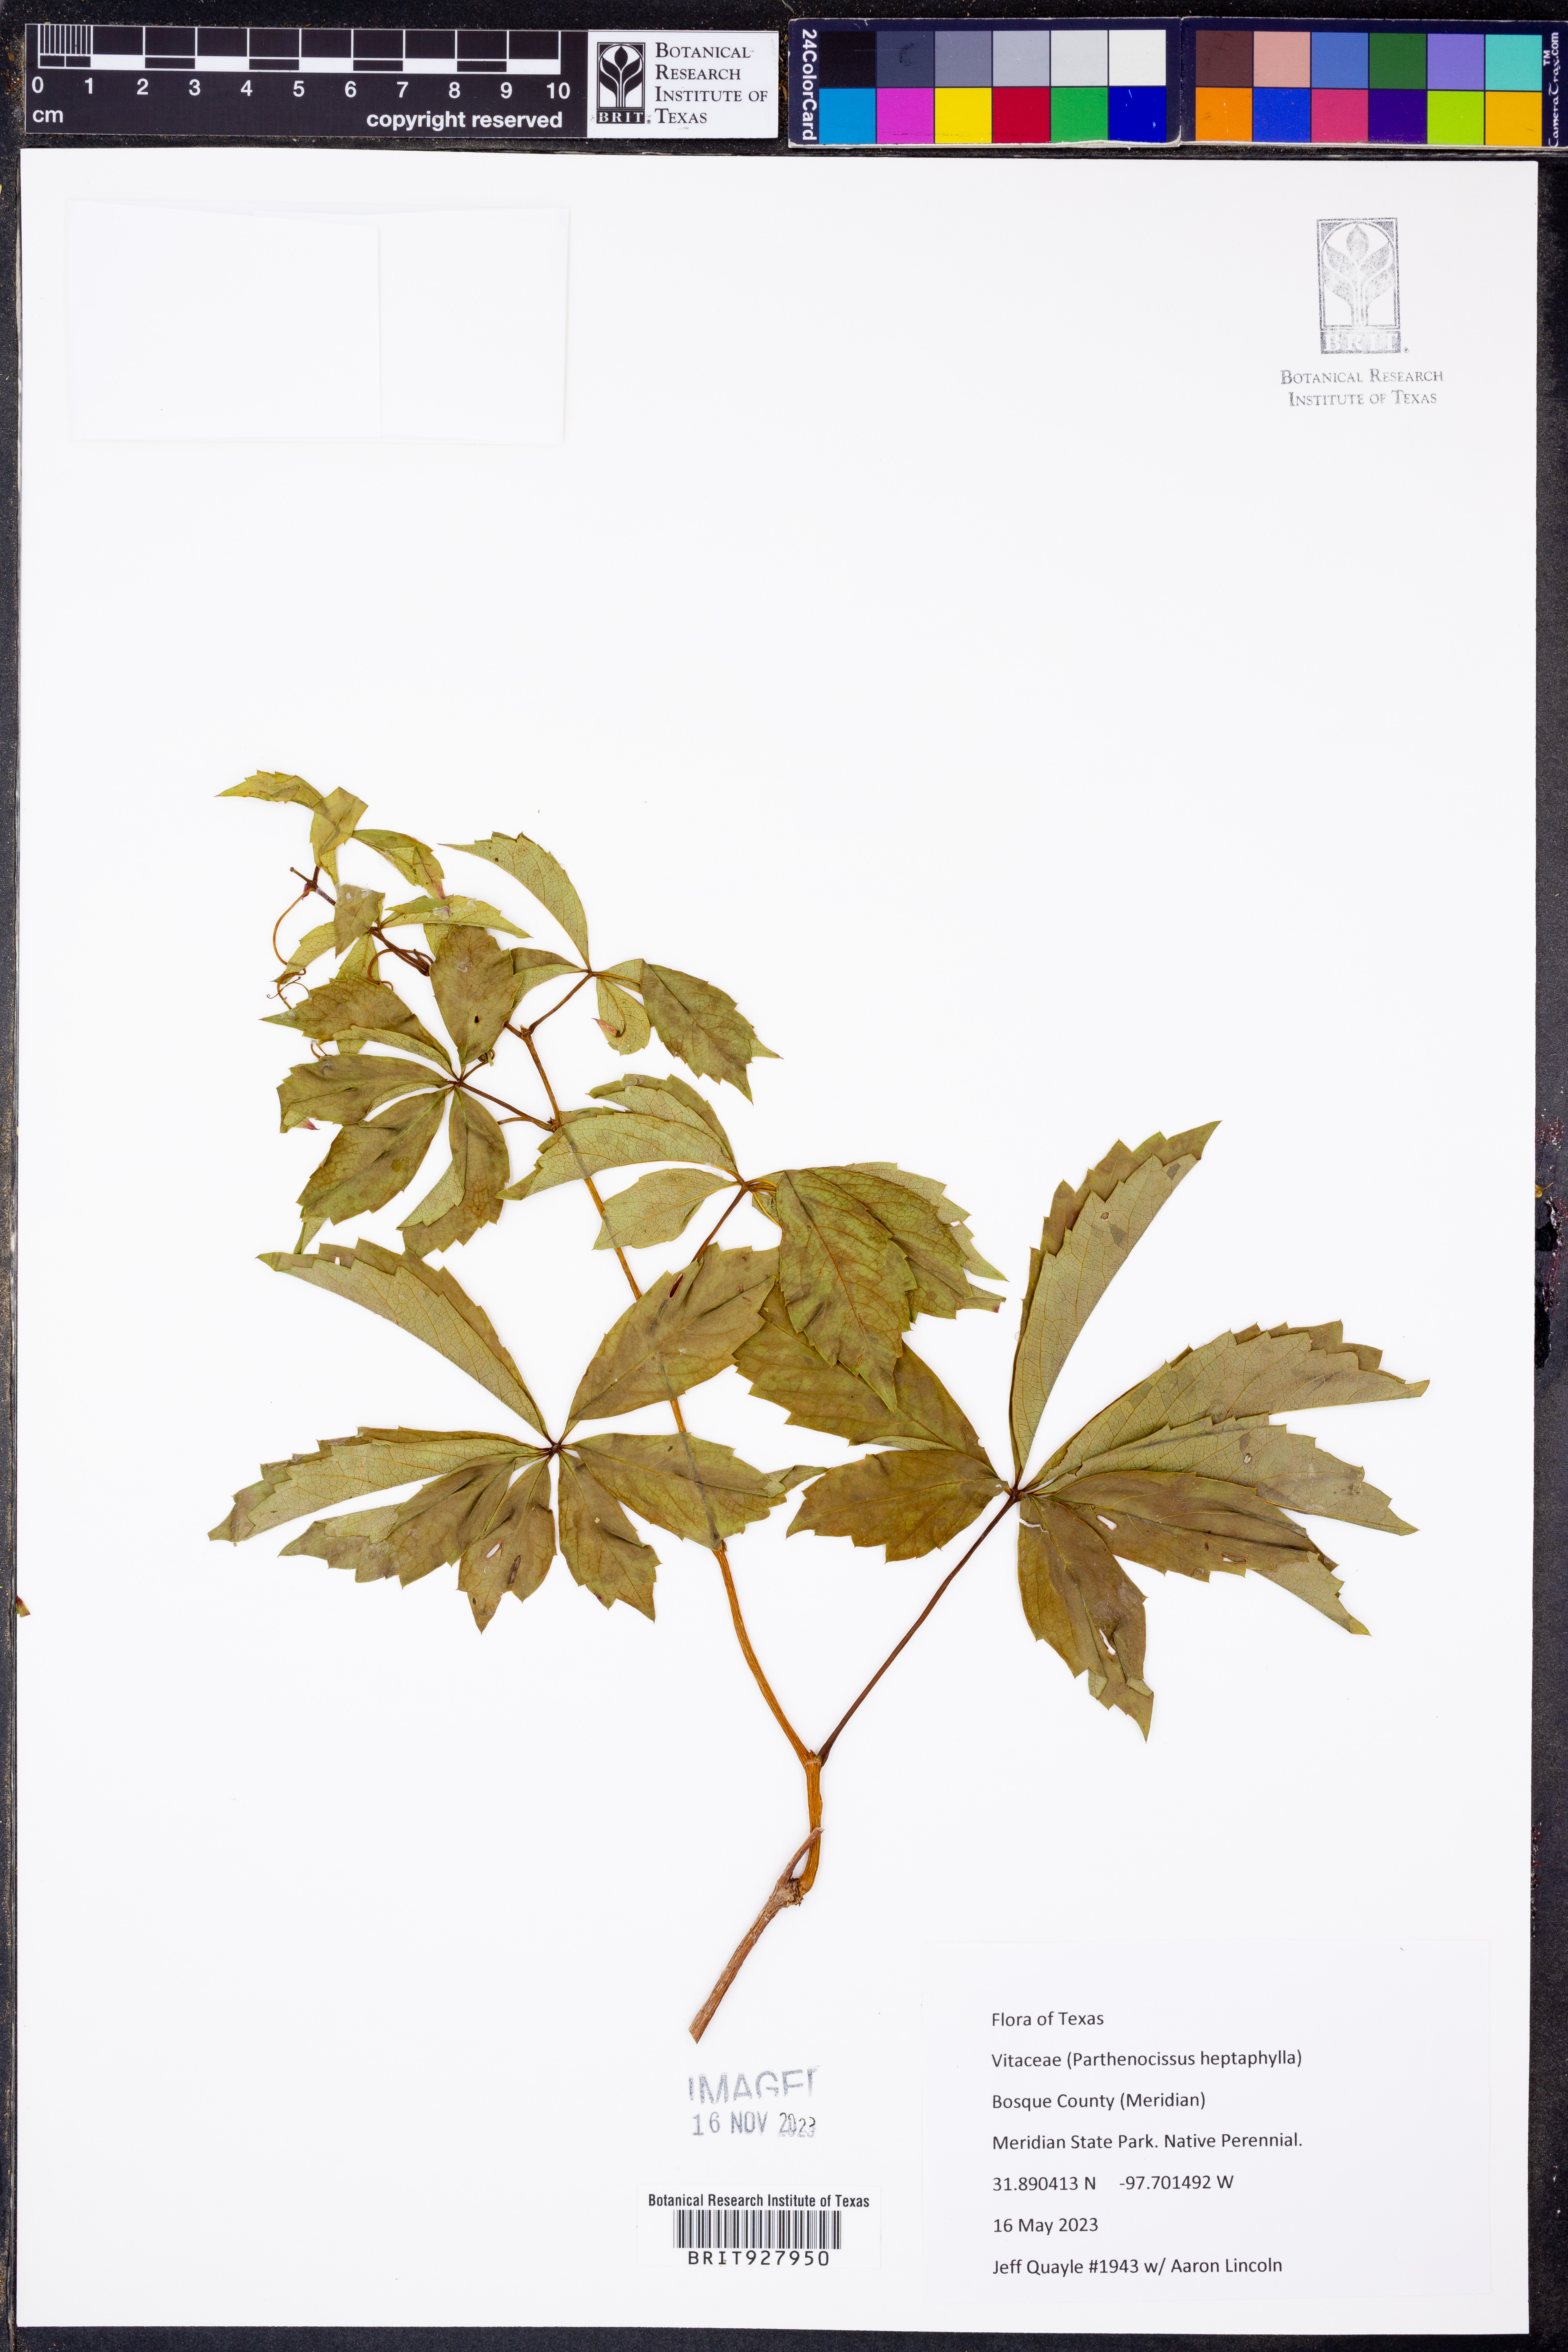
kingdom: Plantae
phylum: Tracheophyta
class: Magnoliopsida
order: Vitales
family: Vitaceae
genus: Parthenocissus
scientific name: Parthenocissus heptaphylla
